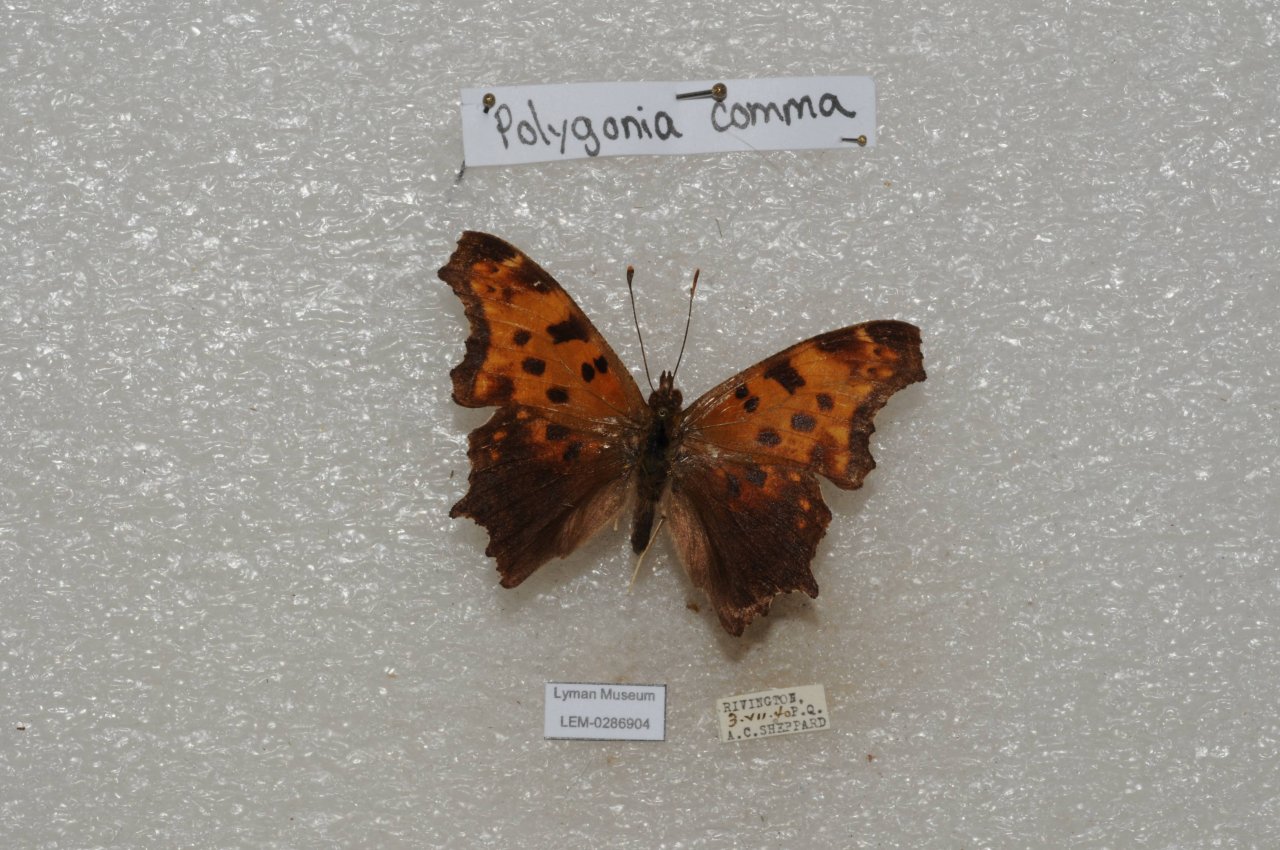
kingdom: Animalia
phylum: Arthropoda
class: Insecta
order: Lepidoptera
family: Nymphalidae
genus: Polygonia
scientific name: Polygonia comma
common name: Eastern Comma
